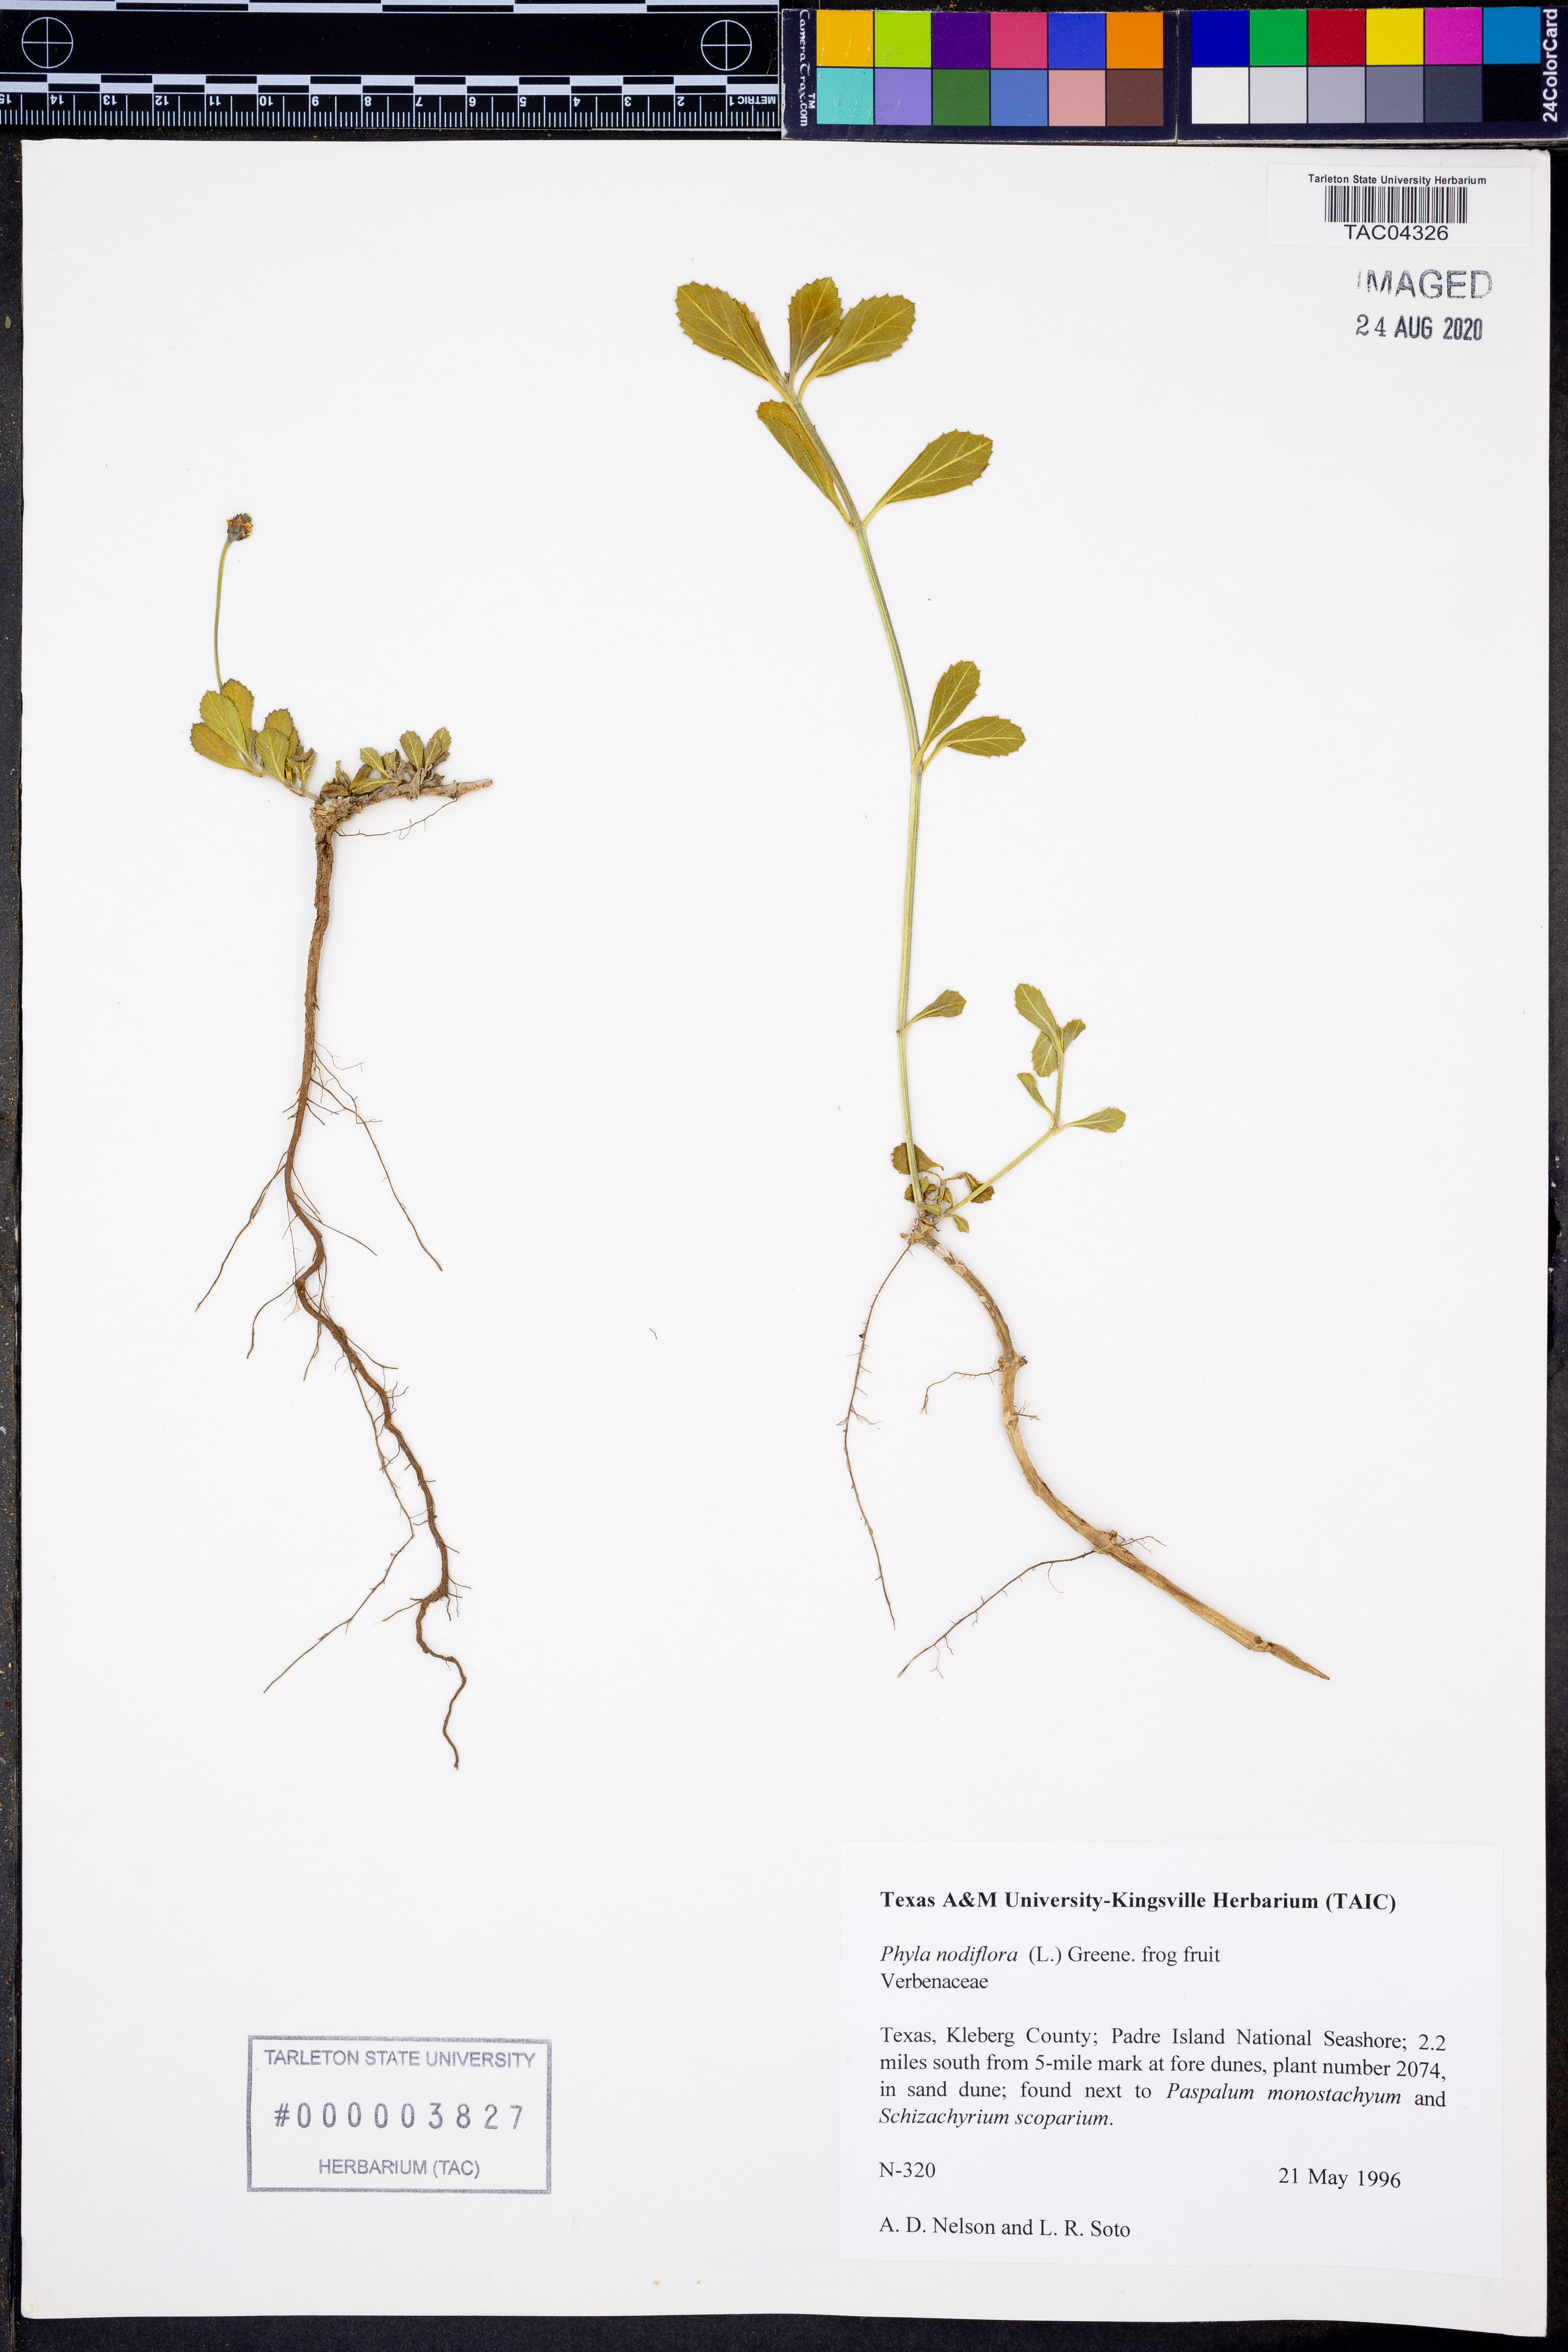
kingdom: Plantae
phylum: Tracheophyta
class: Magnoliopsida
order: Lamiales
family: Verbenaceae
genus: Phyla
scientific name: Phyla nodiflora
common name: Frogfruit
